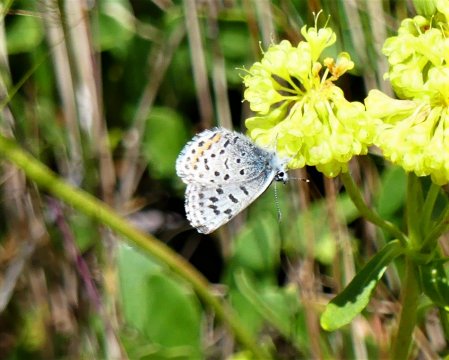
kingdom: Animalia
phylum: Arthropoda
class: Insecta
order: Lepidoptera
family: Lycaenidae
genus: Euphilotes
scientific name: Euphilotes battoides
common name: Glaucon Blue
